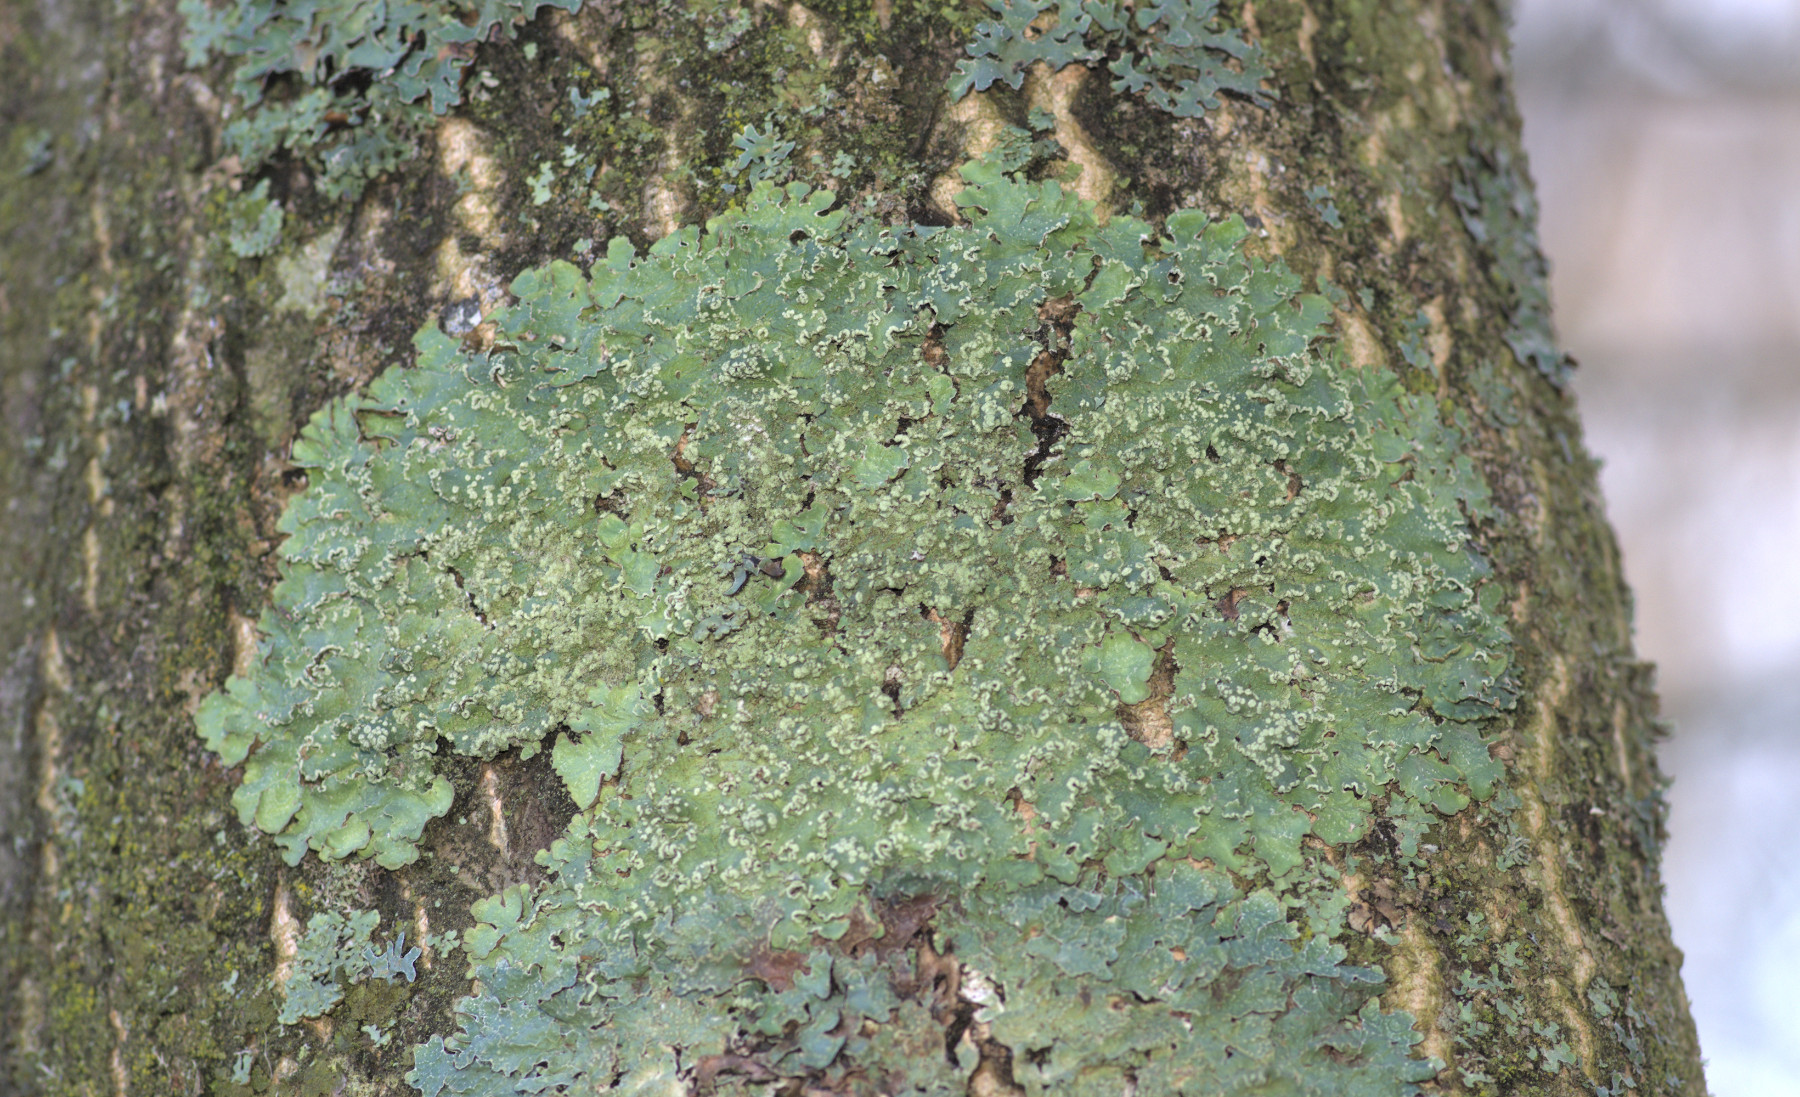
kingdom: Fungi
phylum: Ascomycota
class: Lecanoromycetes
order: Lecanorales
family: Parmeliaceae
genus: Punctelia
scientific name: Punctelia jeckeri
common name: randstøvet skållav
